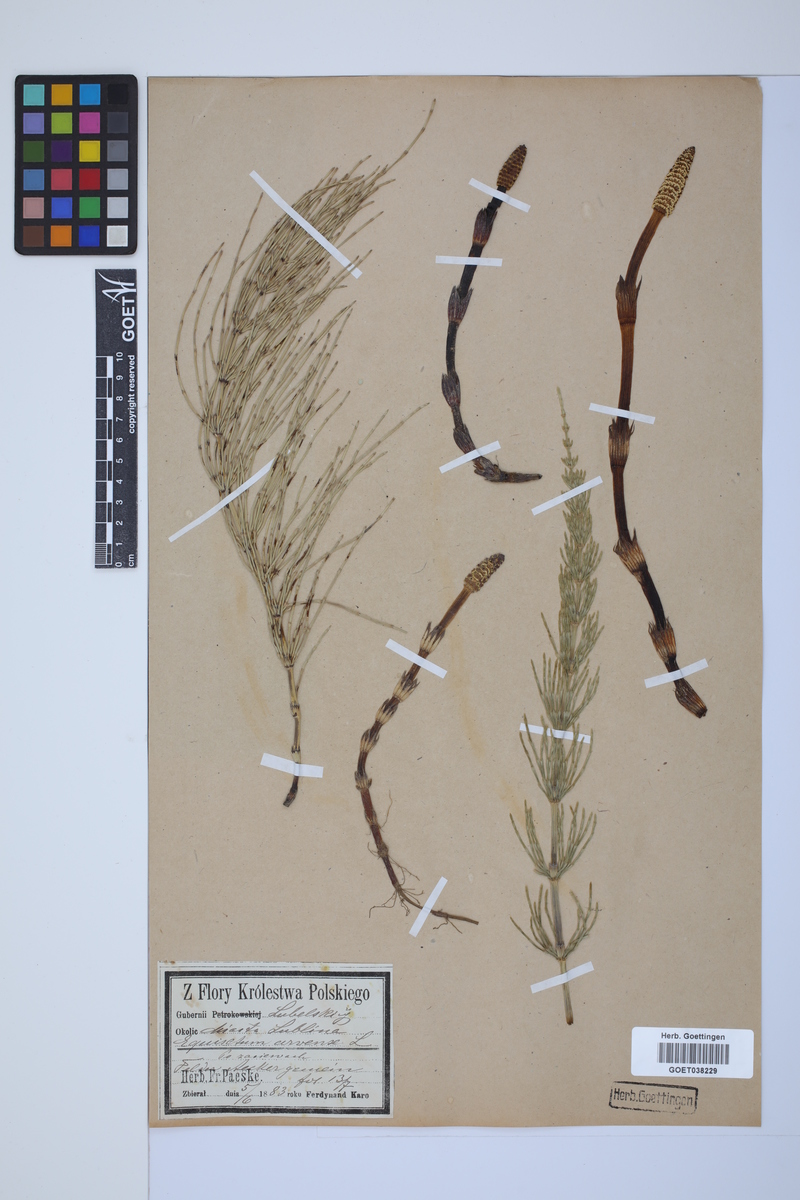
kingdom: Plantae
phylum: Tracheophyta
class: Polypodiopsida
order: Equisetales
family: Equisetaceae
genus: Equisetum
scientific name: Equisetum arvense
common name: Field horsetail
